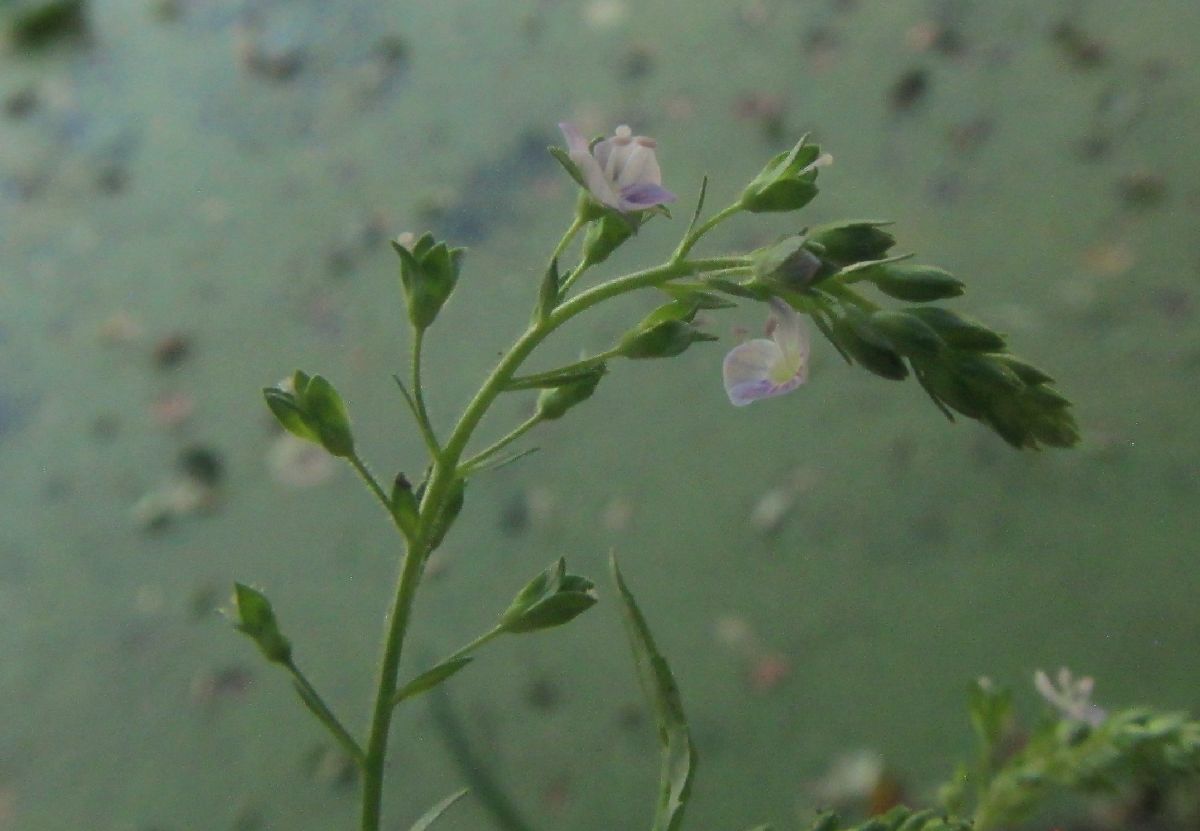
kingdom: Plantae
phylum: Tracheophyta
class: Magnoliopsida
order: Lamiales
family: Plantaginaceae
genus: Veronica
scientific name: Veronica anagalloides
